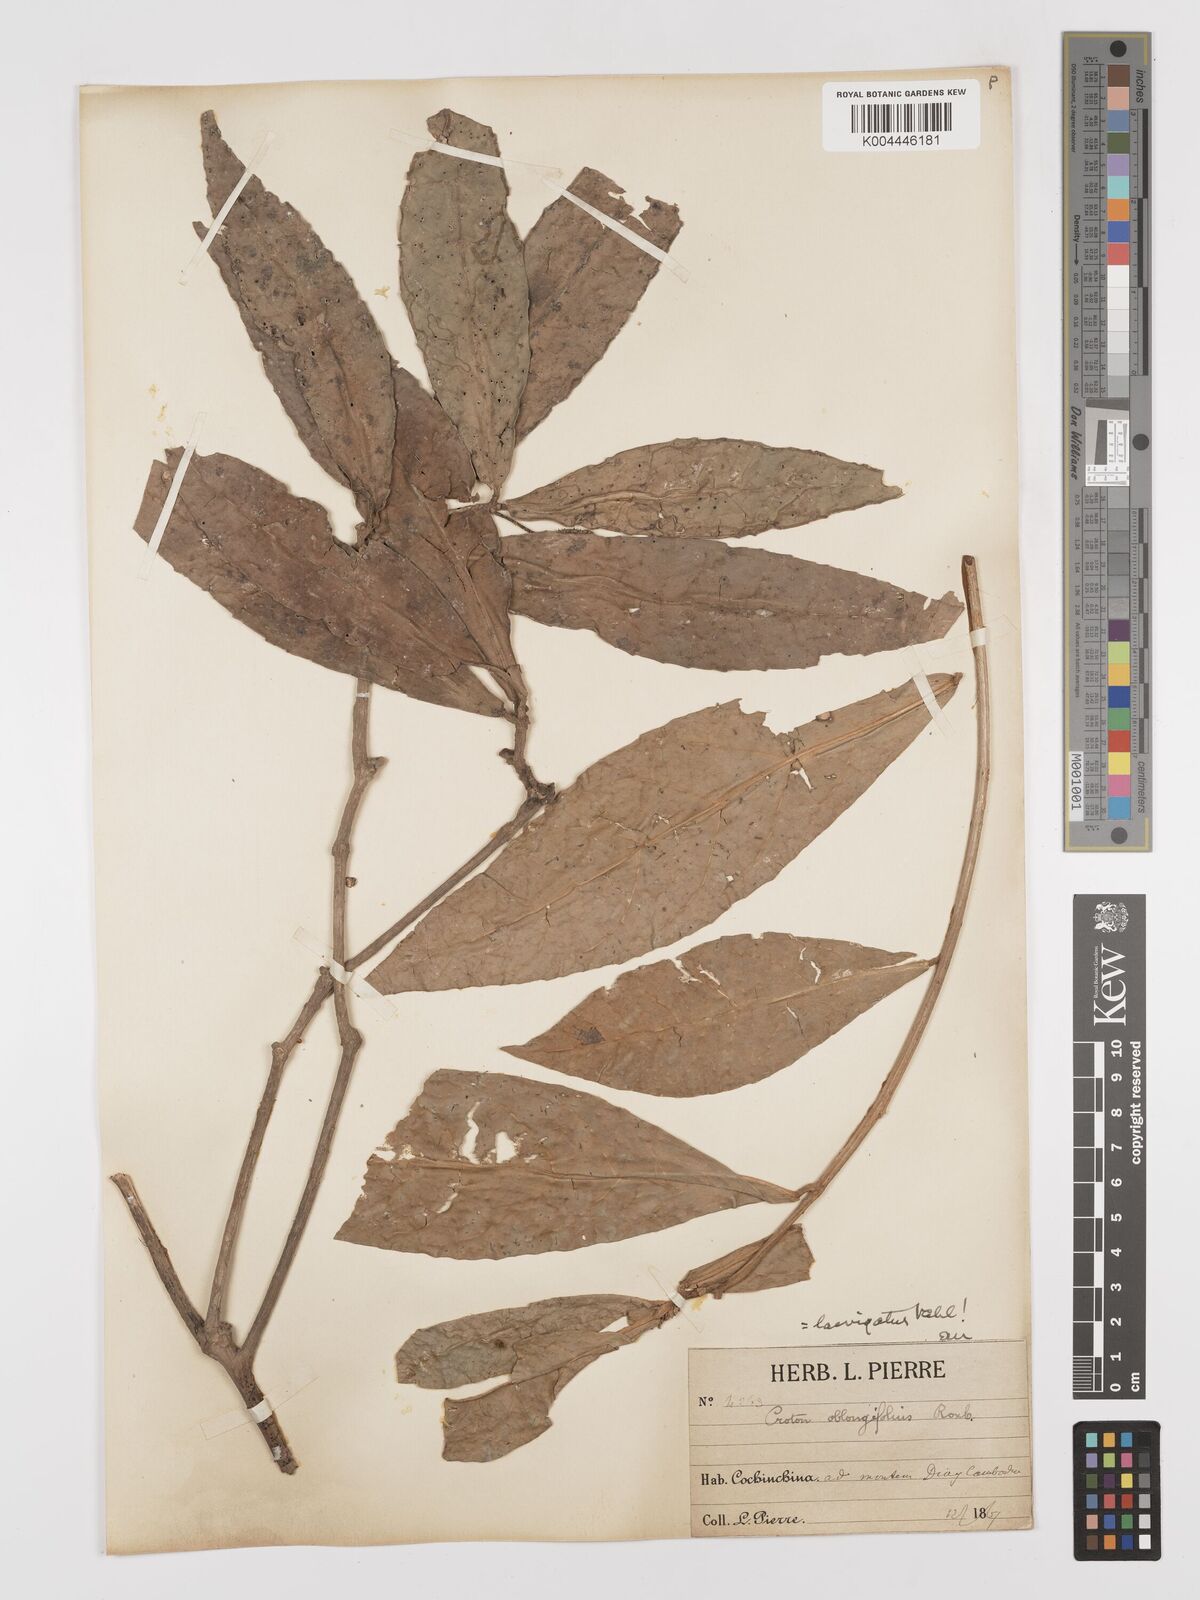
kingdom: Plantae
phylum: Tracheophyta
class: Magnoliopsida
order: Malpighiales
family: Euphorbiaceae
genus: Croton
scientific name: Croton delpyi
